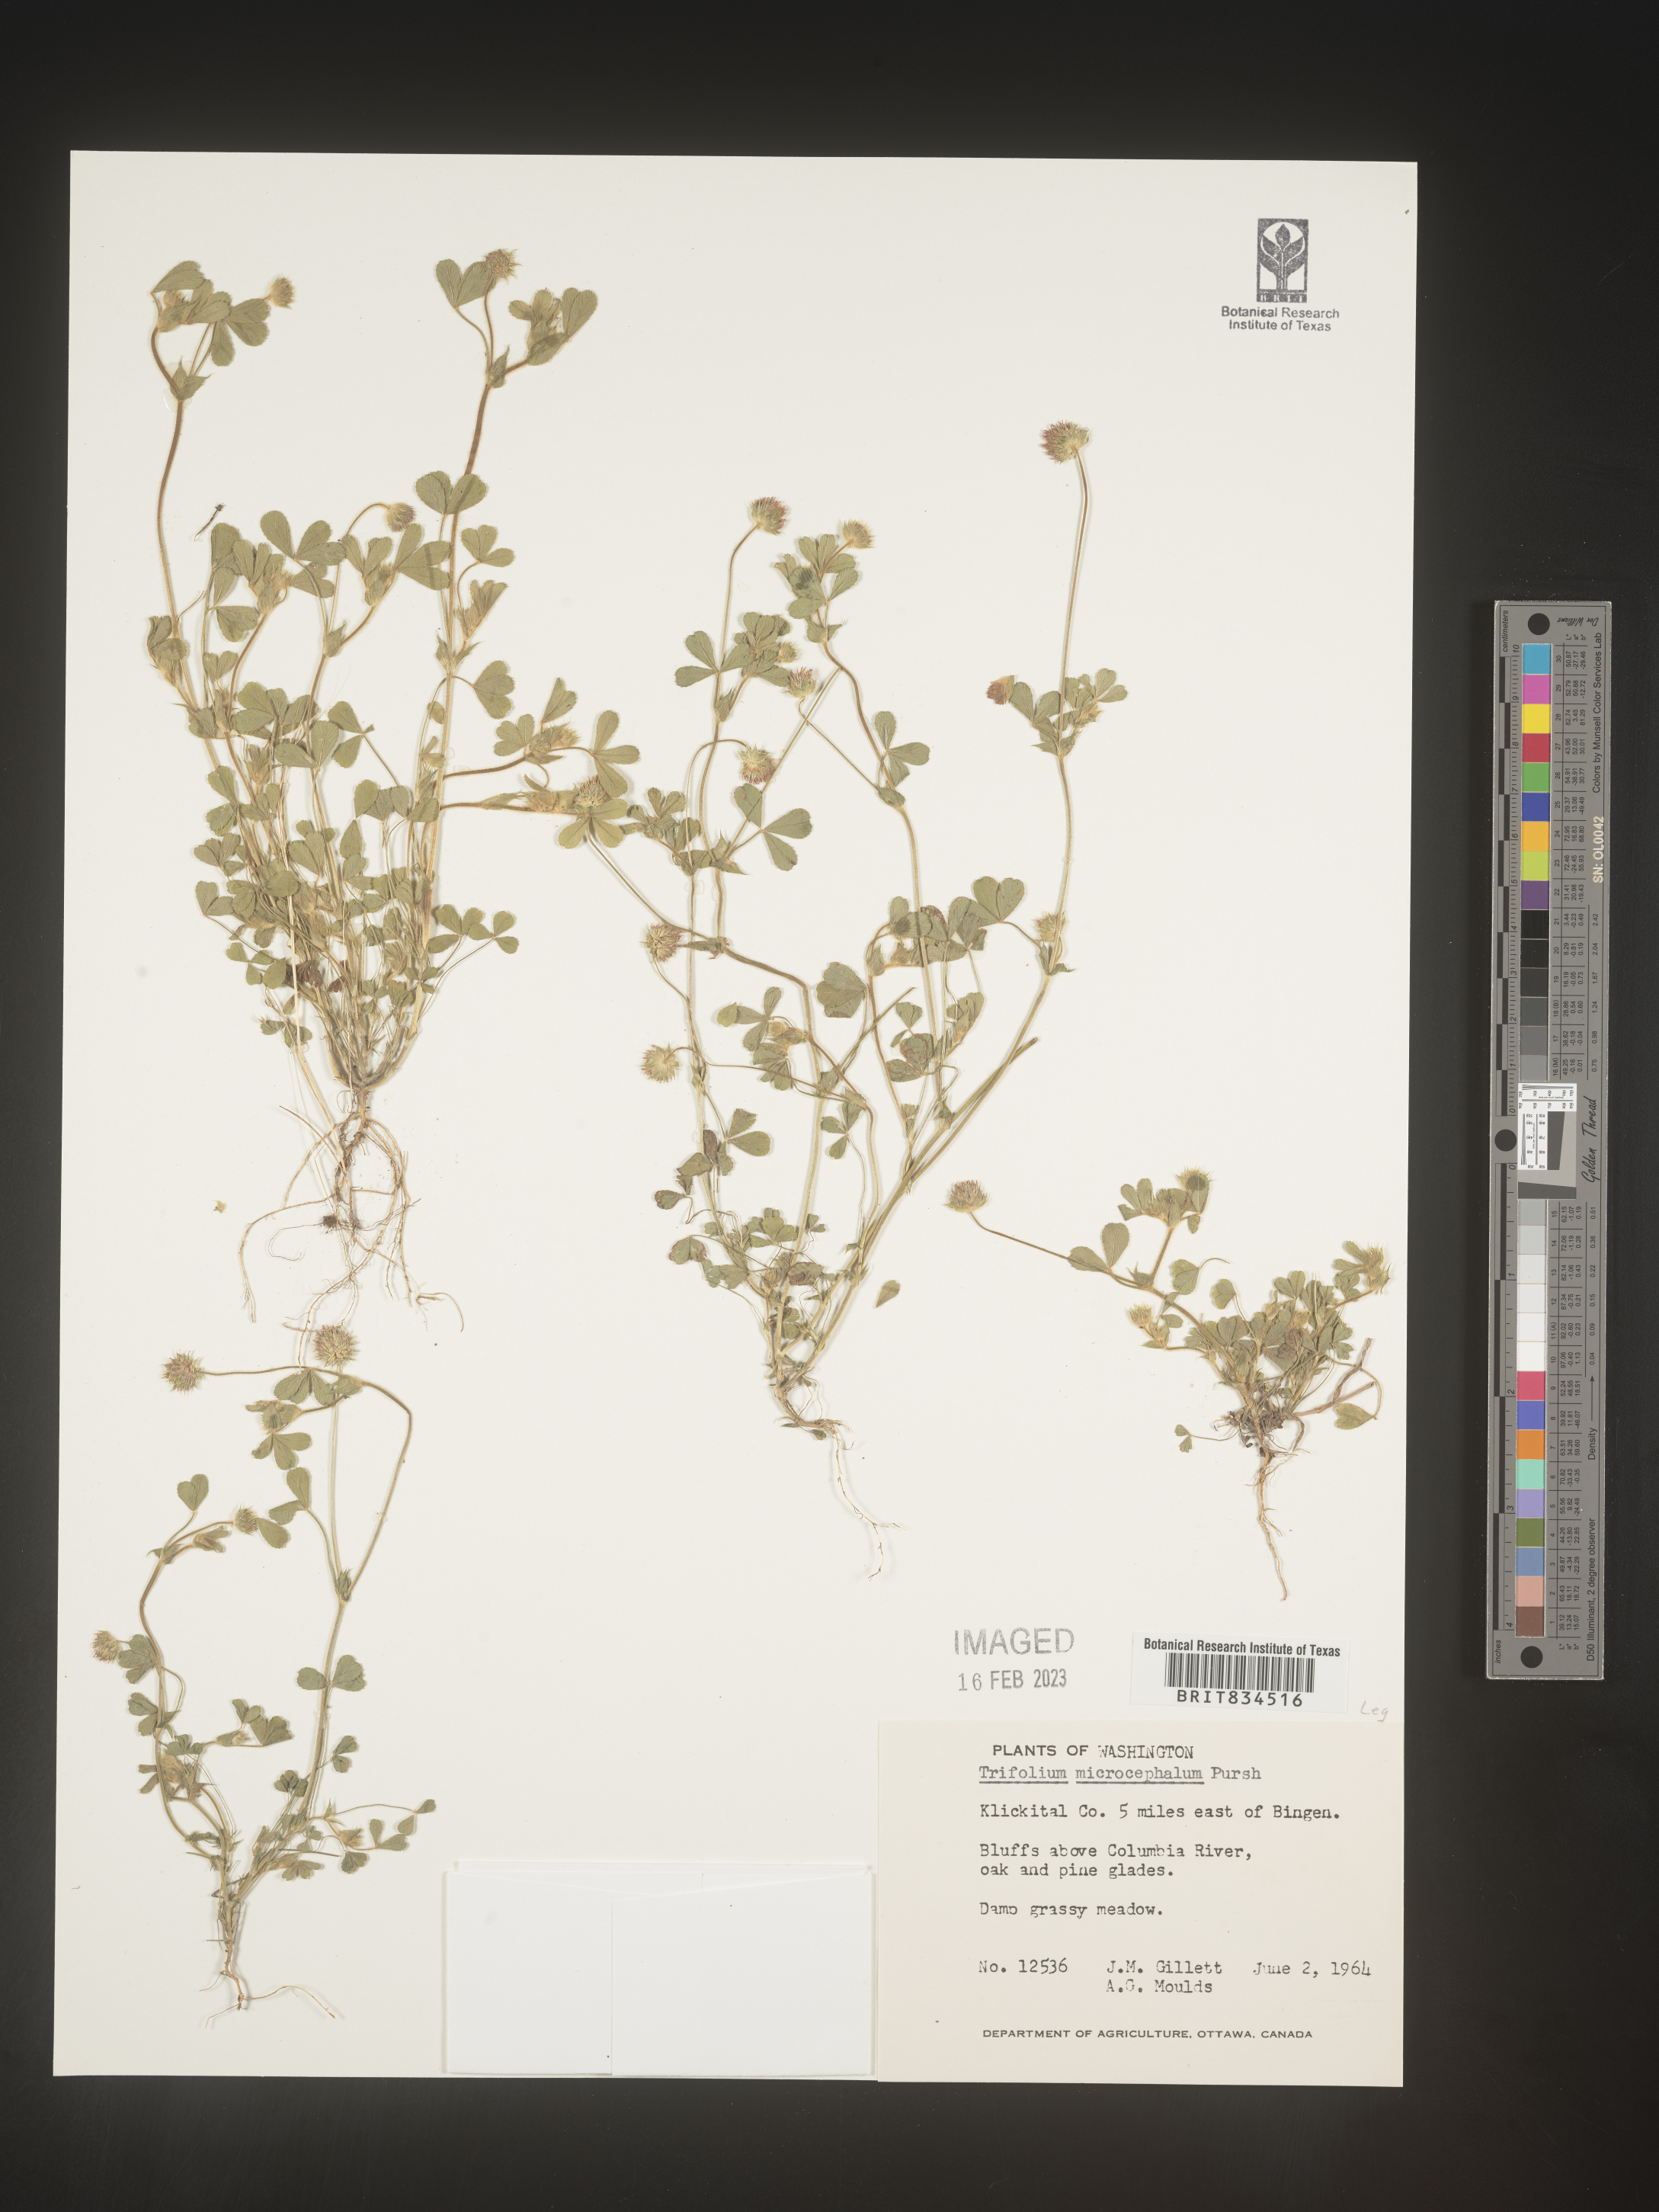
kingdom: Plantae
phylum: Tracheophyta
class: Magnoliopsida
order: Fabales
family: Fabaceae
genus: Trifolium
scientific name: Trifolium
